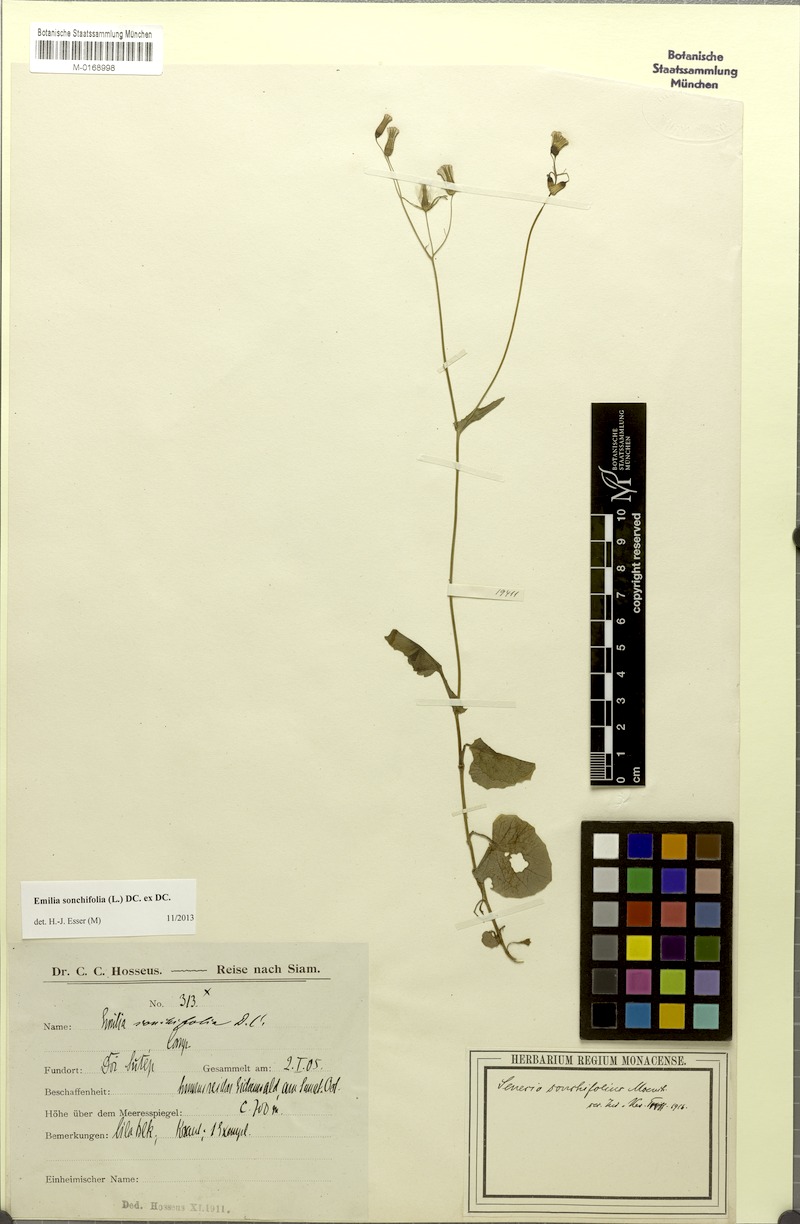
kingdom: Plantae
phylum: Tracheophyta
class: Magnoliopsida
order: Asterales
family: Asteraceae
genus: Emilia
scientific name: Emilia sonchifolia
